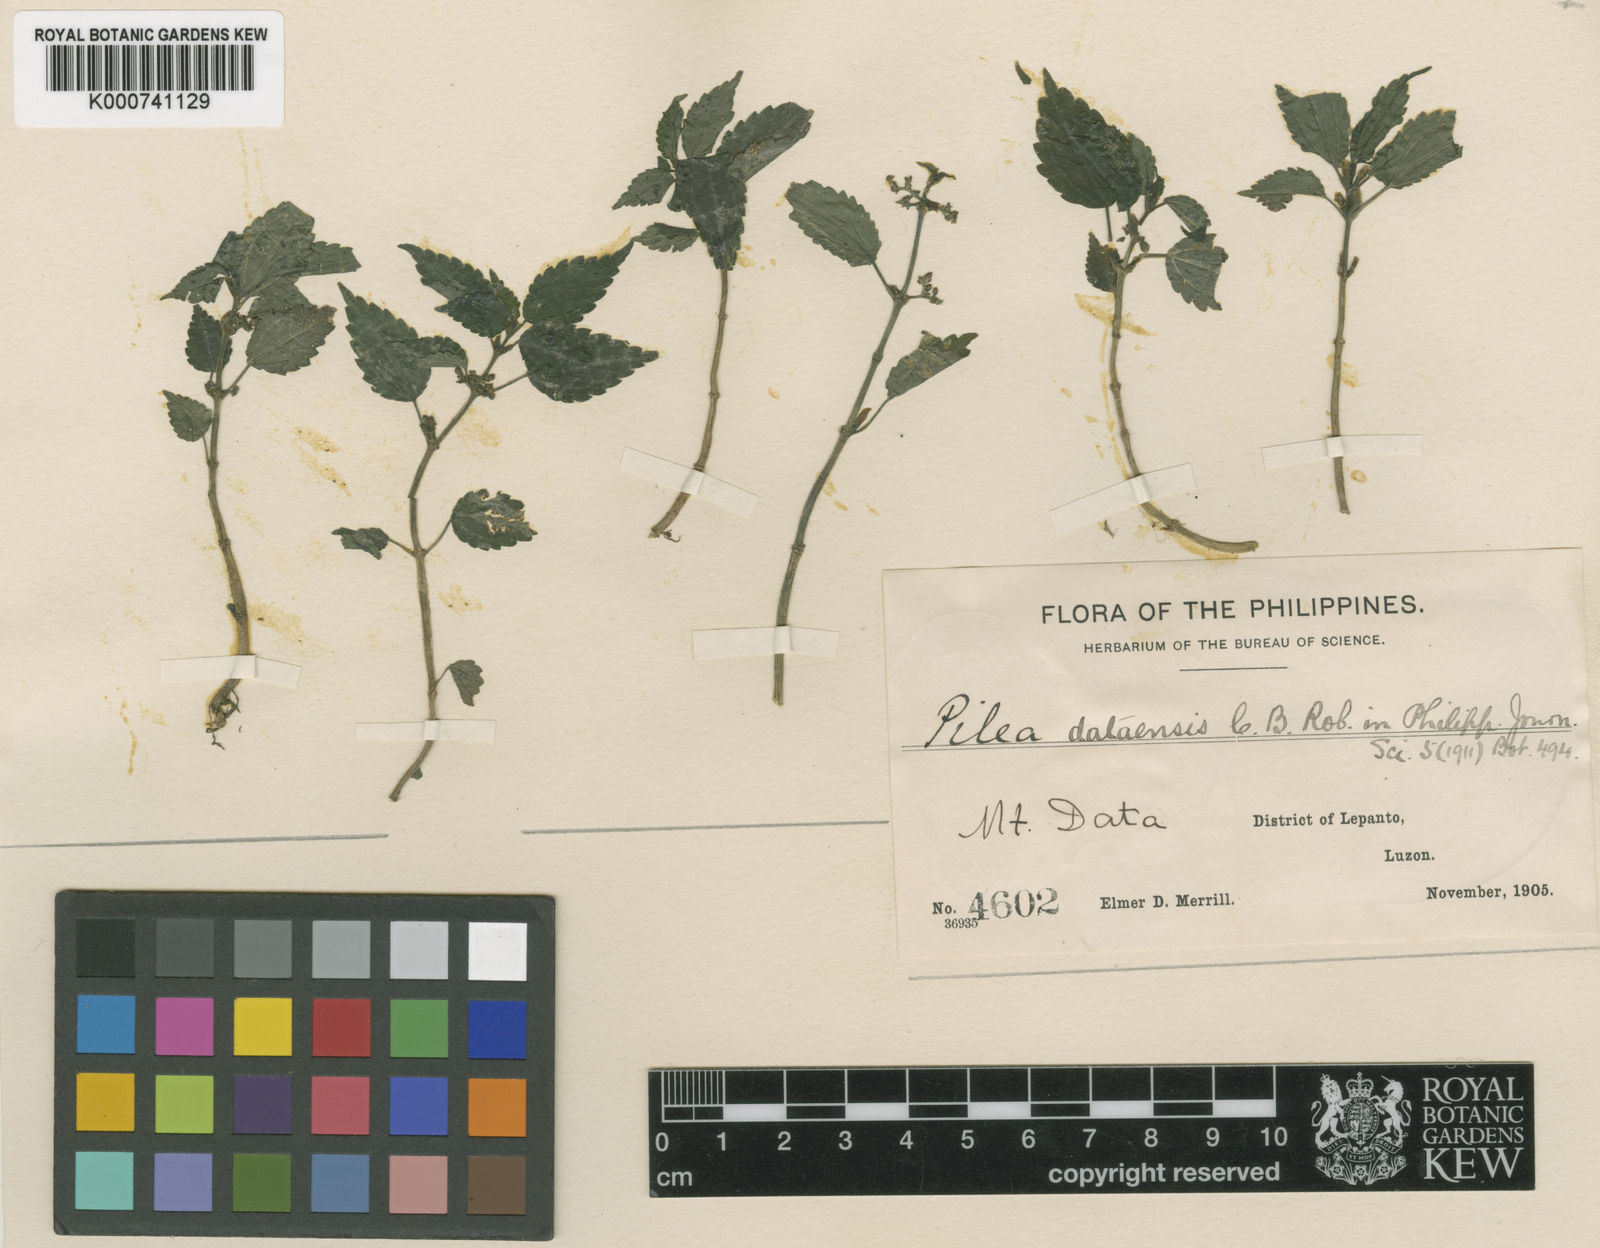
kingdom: Plantae
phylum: Tracheophyta
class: Magnoliopsida
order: Rosales
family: Urticaceae
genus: Pilea
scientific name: Pilea dataensis
